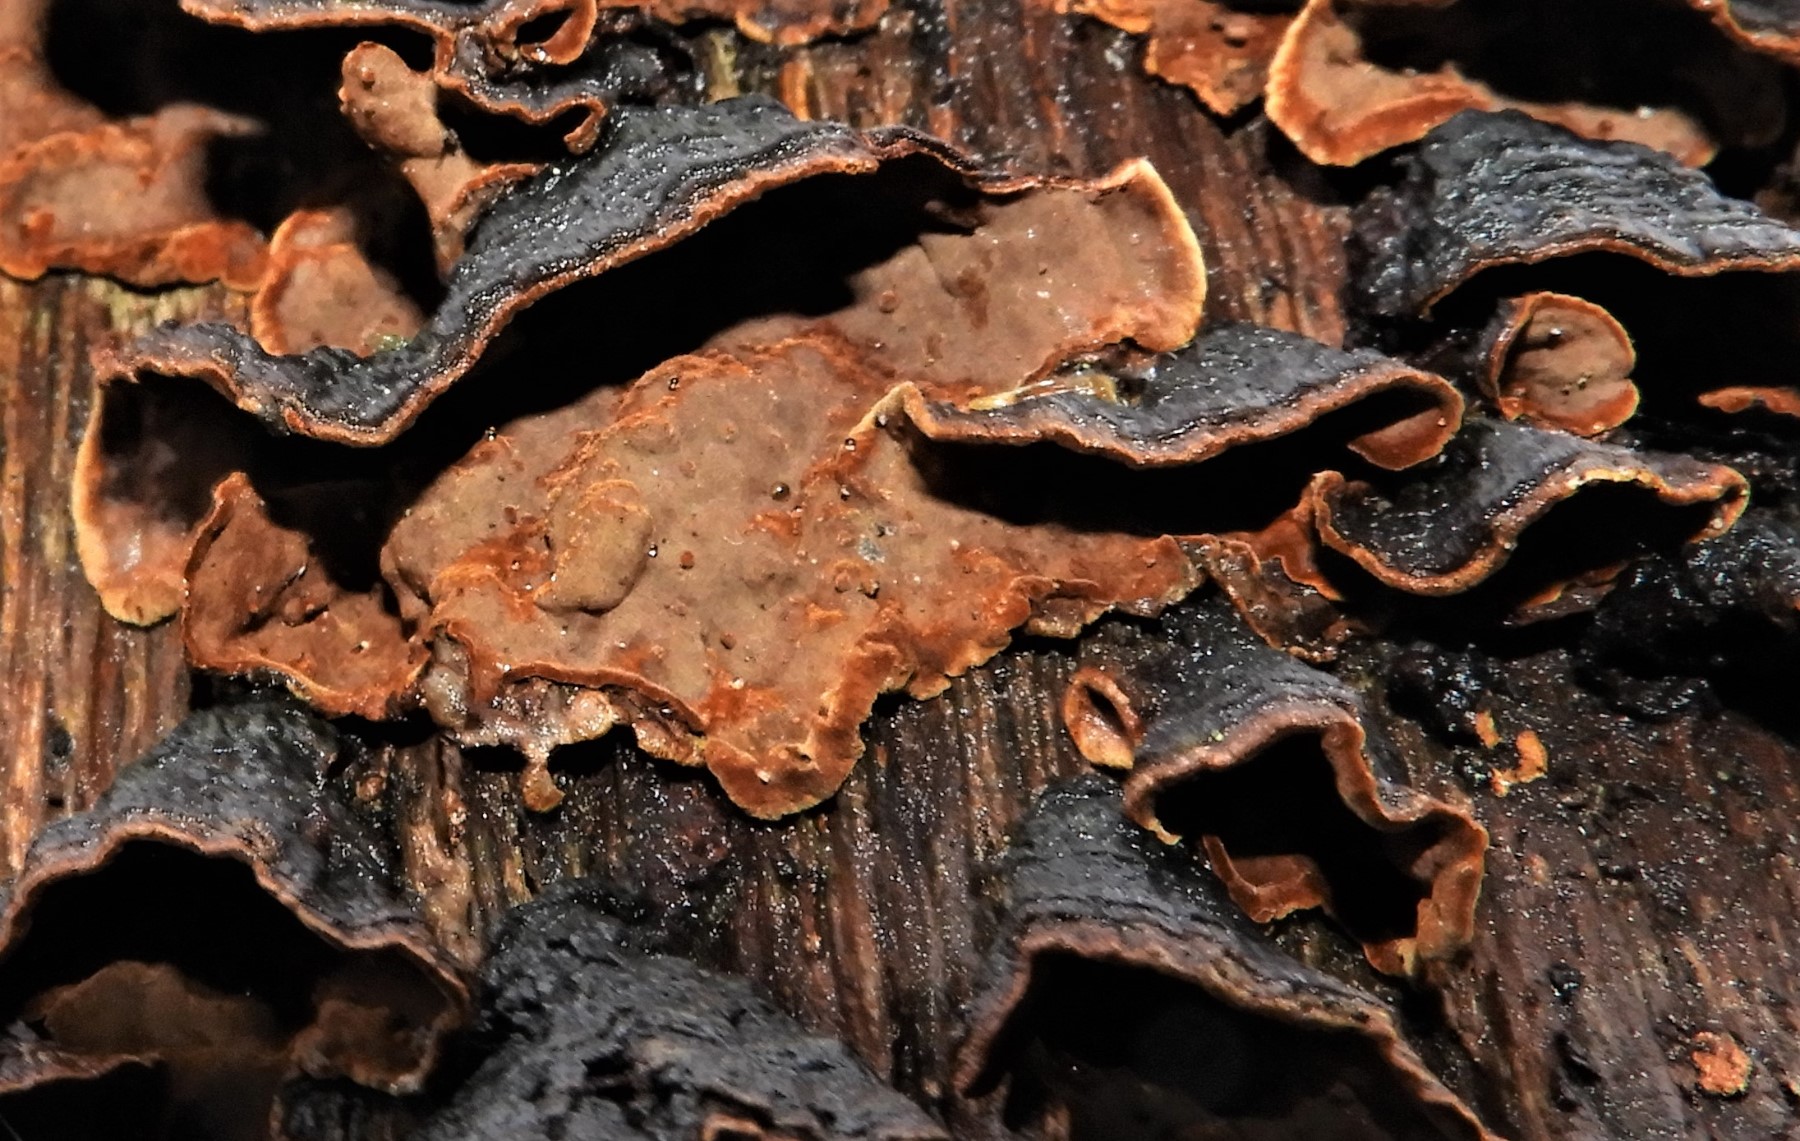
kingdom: Fungi
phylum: Basidiomycota
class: Agaricomycetes
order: Hymenochaetales
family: Hymenochaetaceae
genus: Hymenochaete
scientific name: Hymenochaete rubiginosa
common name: stiv ruslædersvamp
